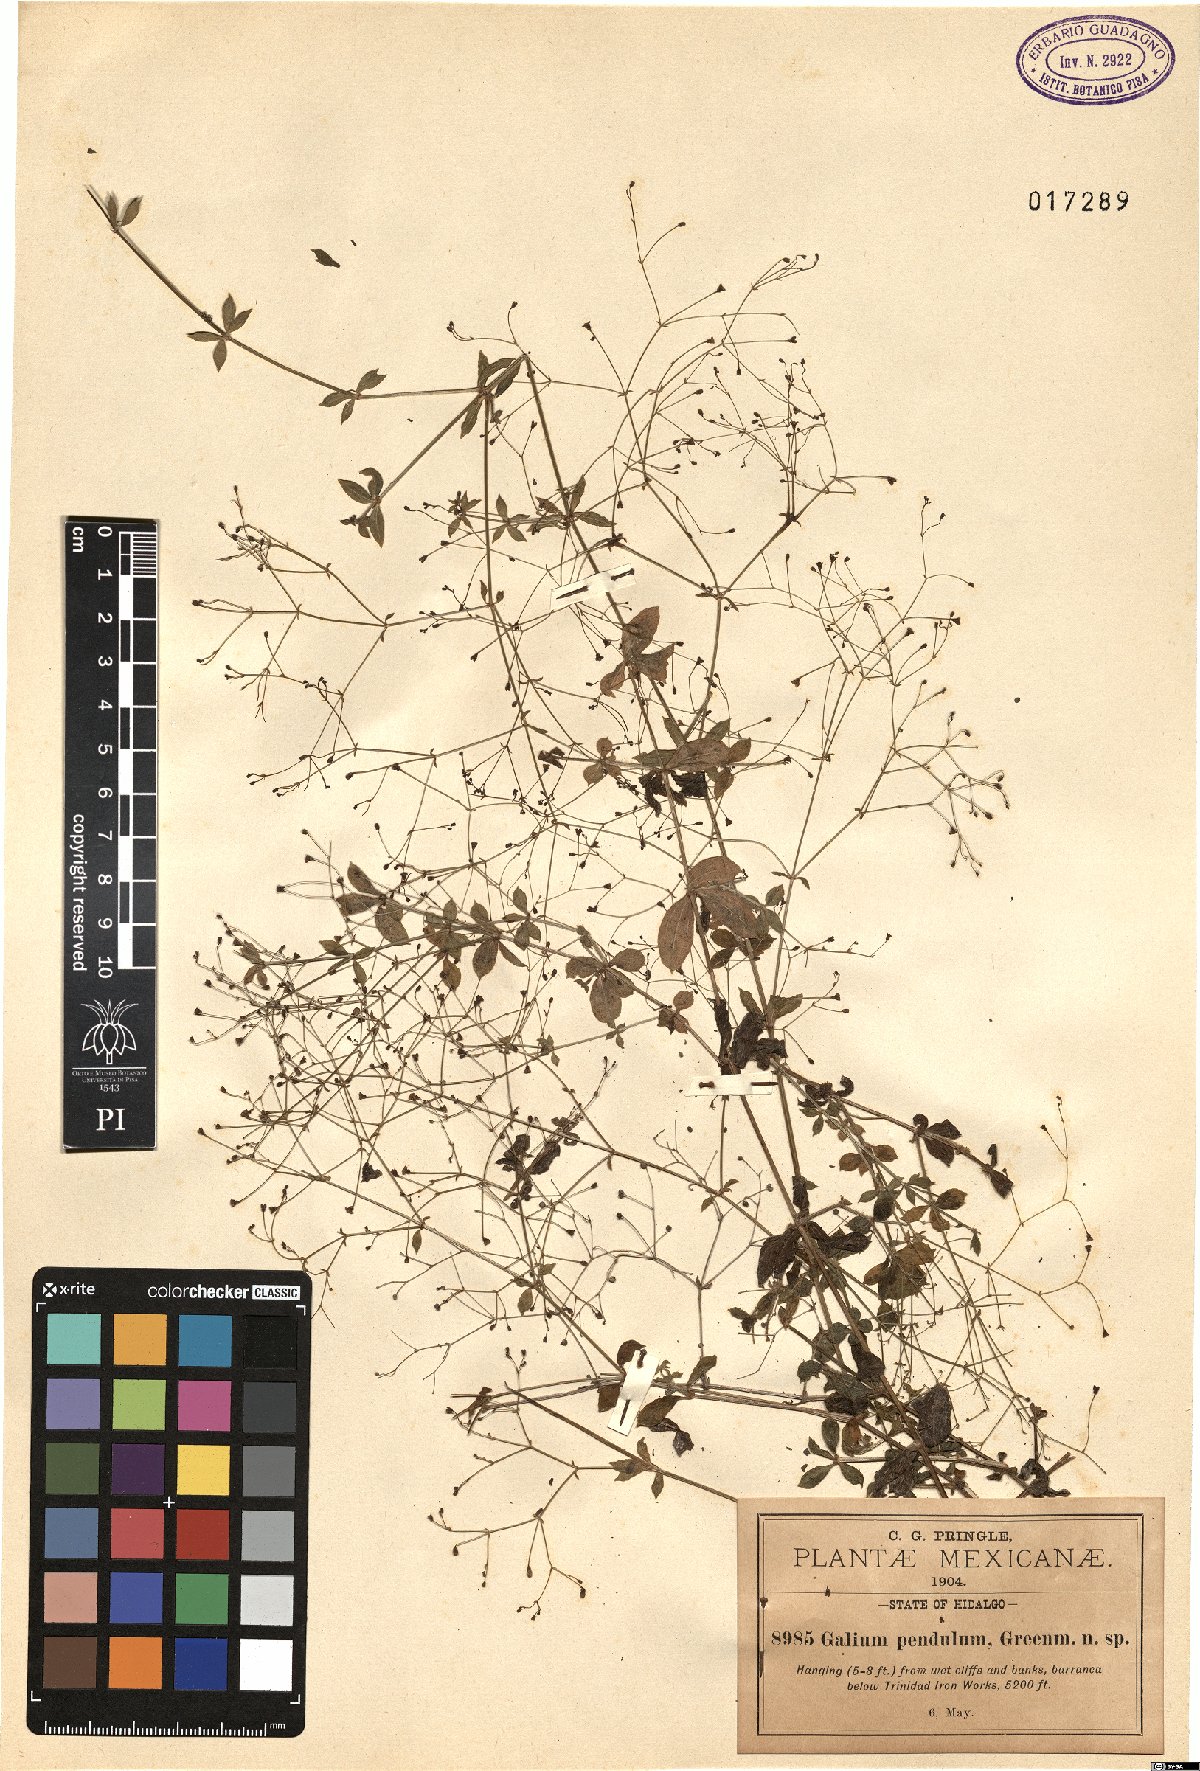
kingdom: Plantae
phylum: Tracheophyta
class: Magnoliopsida
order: Gentianales
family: Rubiaceae
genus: Galium
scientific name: Galium pendulum
